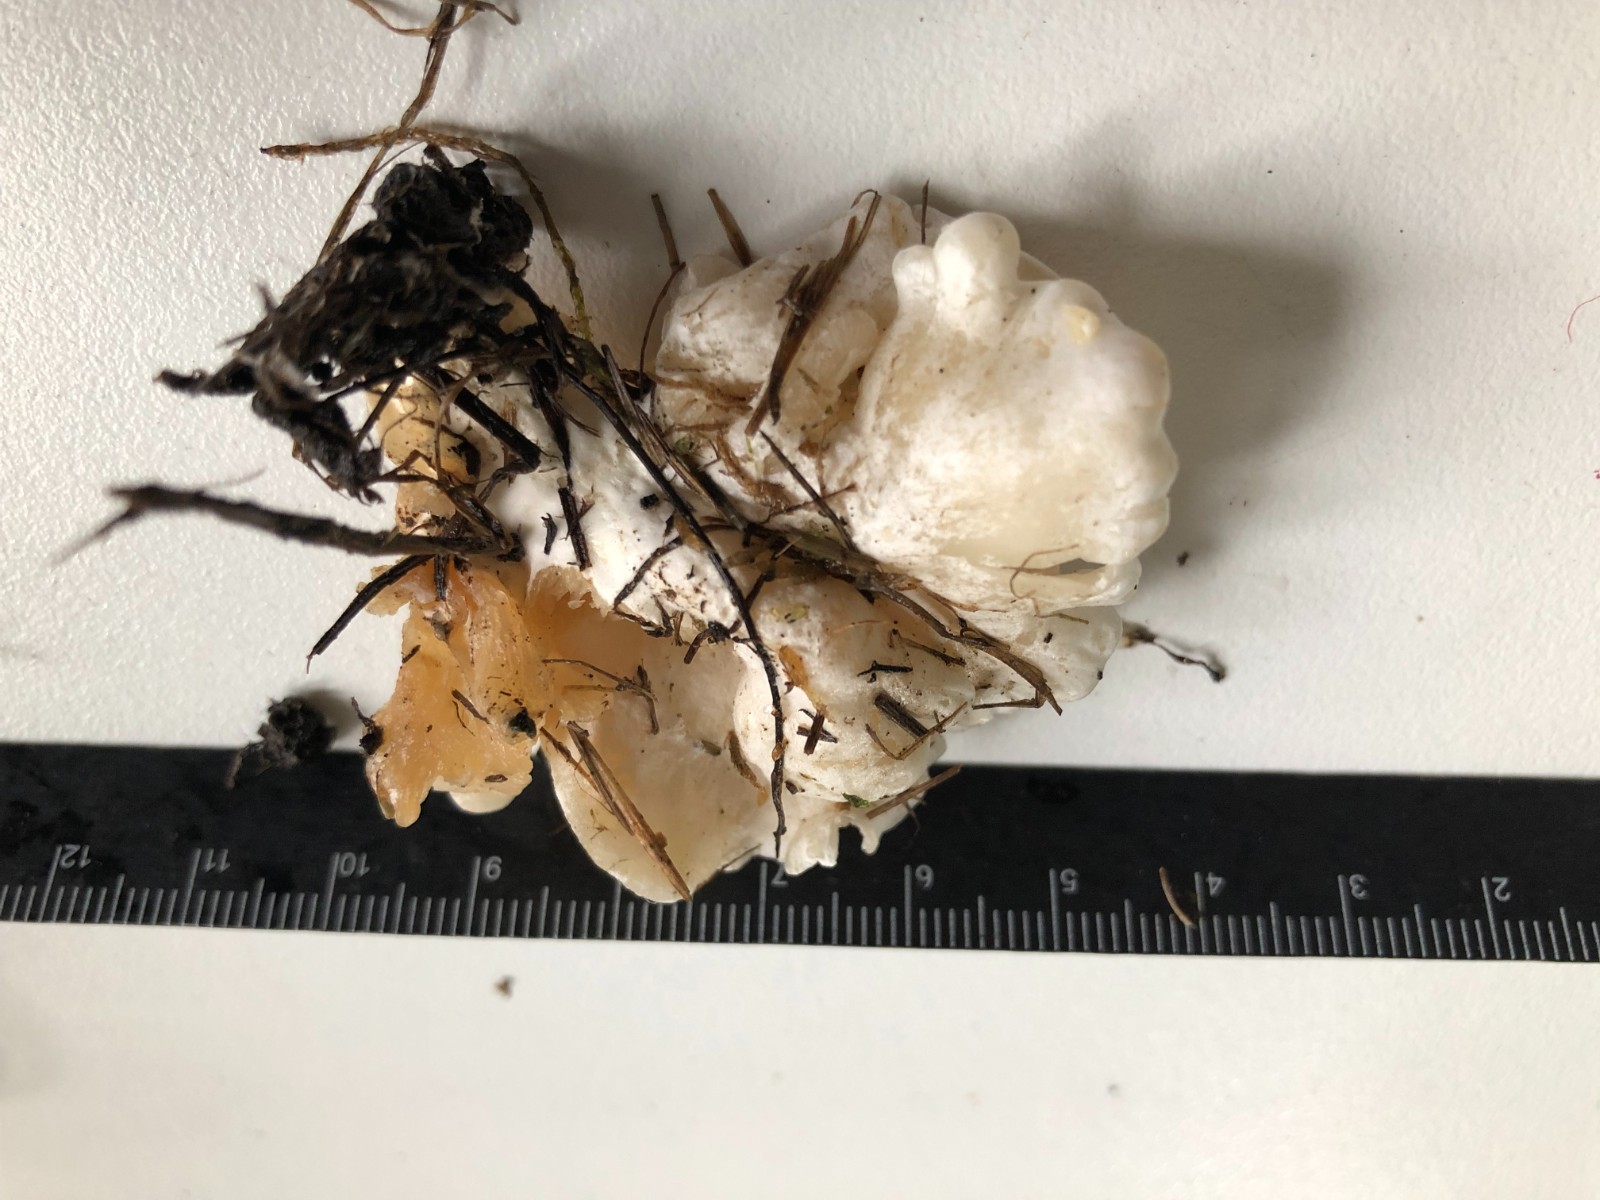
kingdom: Fungi
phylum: Basidiomycota
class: Agaricomycetes
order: Agaricales
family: Entolomataceae
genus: Clitopilus
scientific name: Clitopilus
